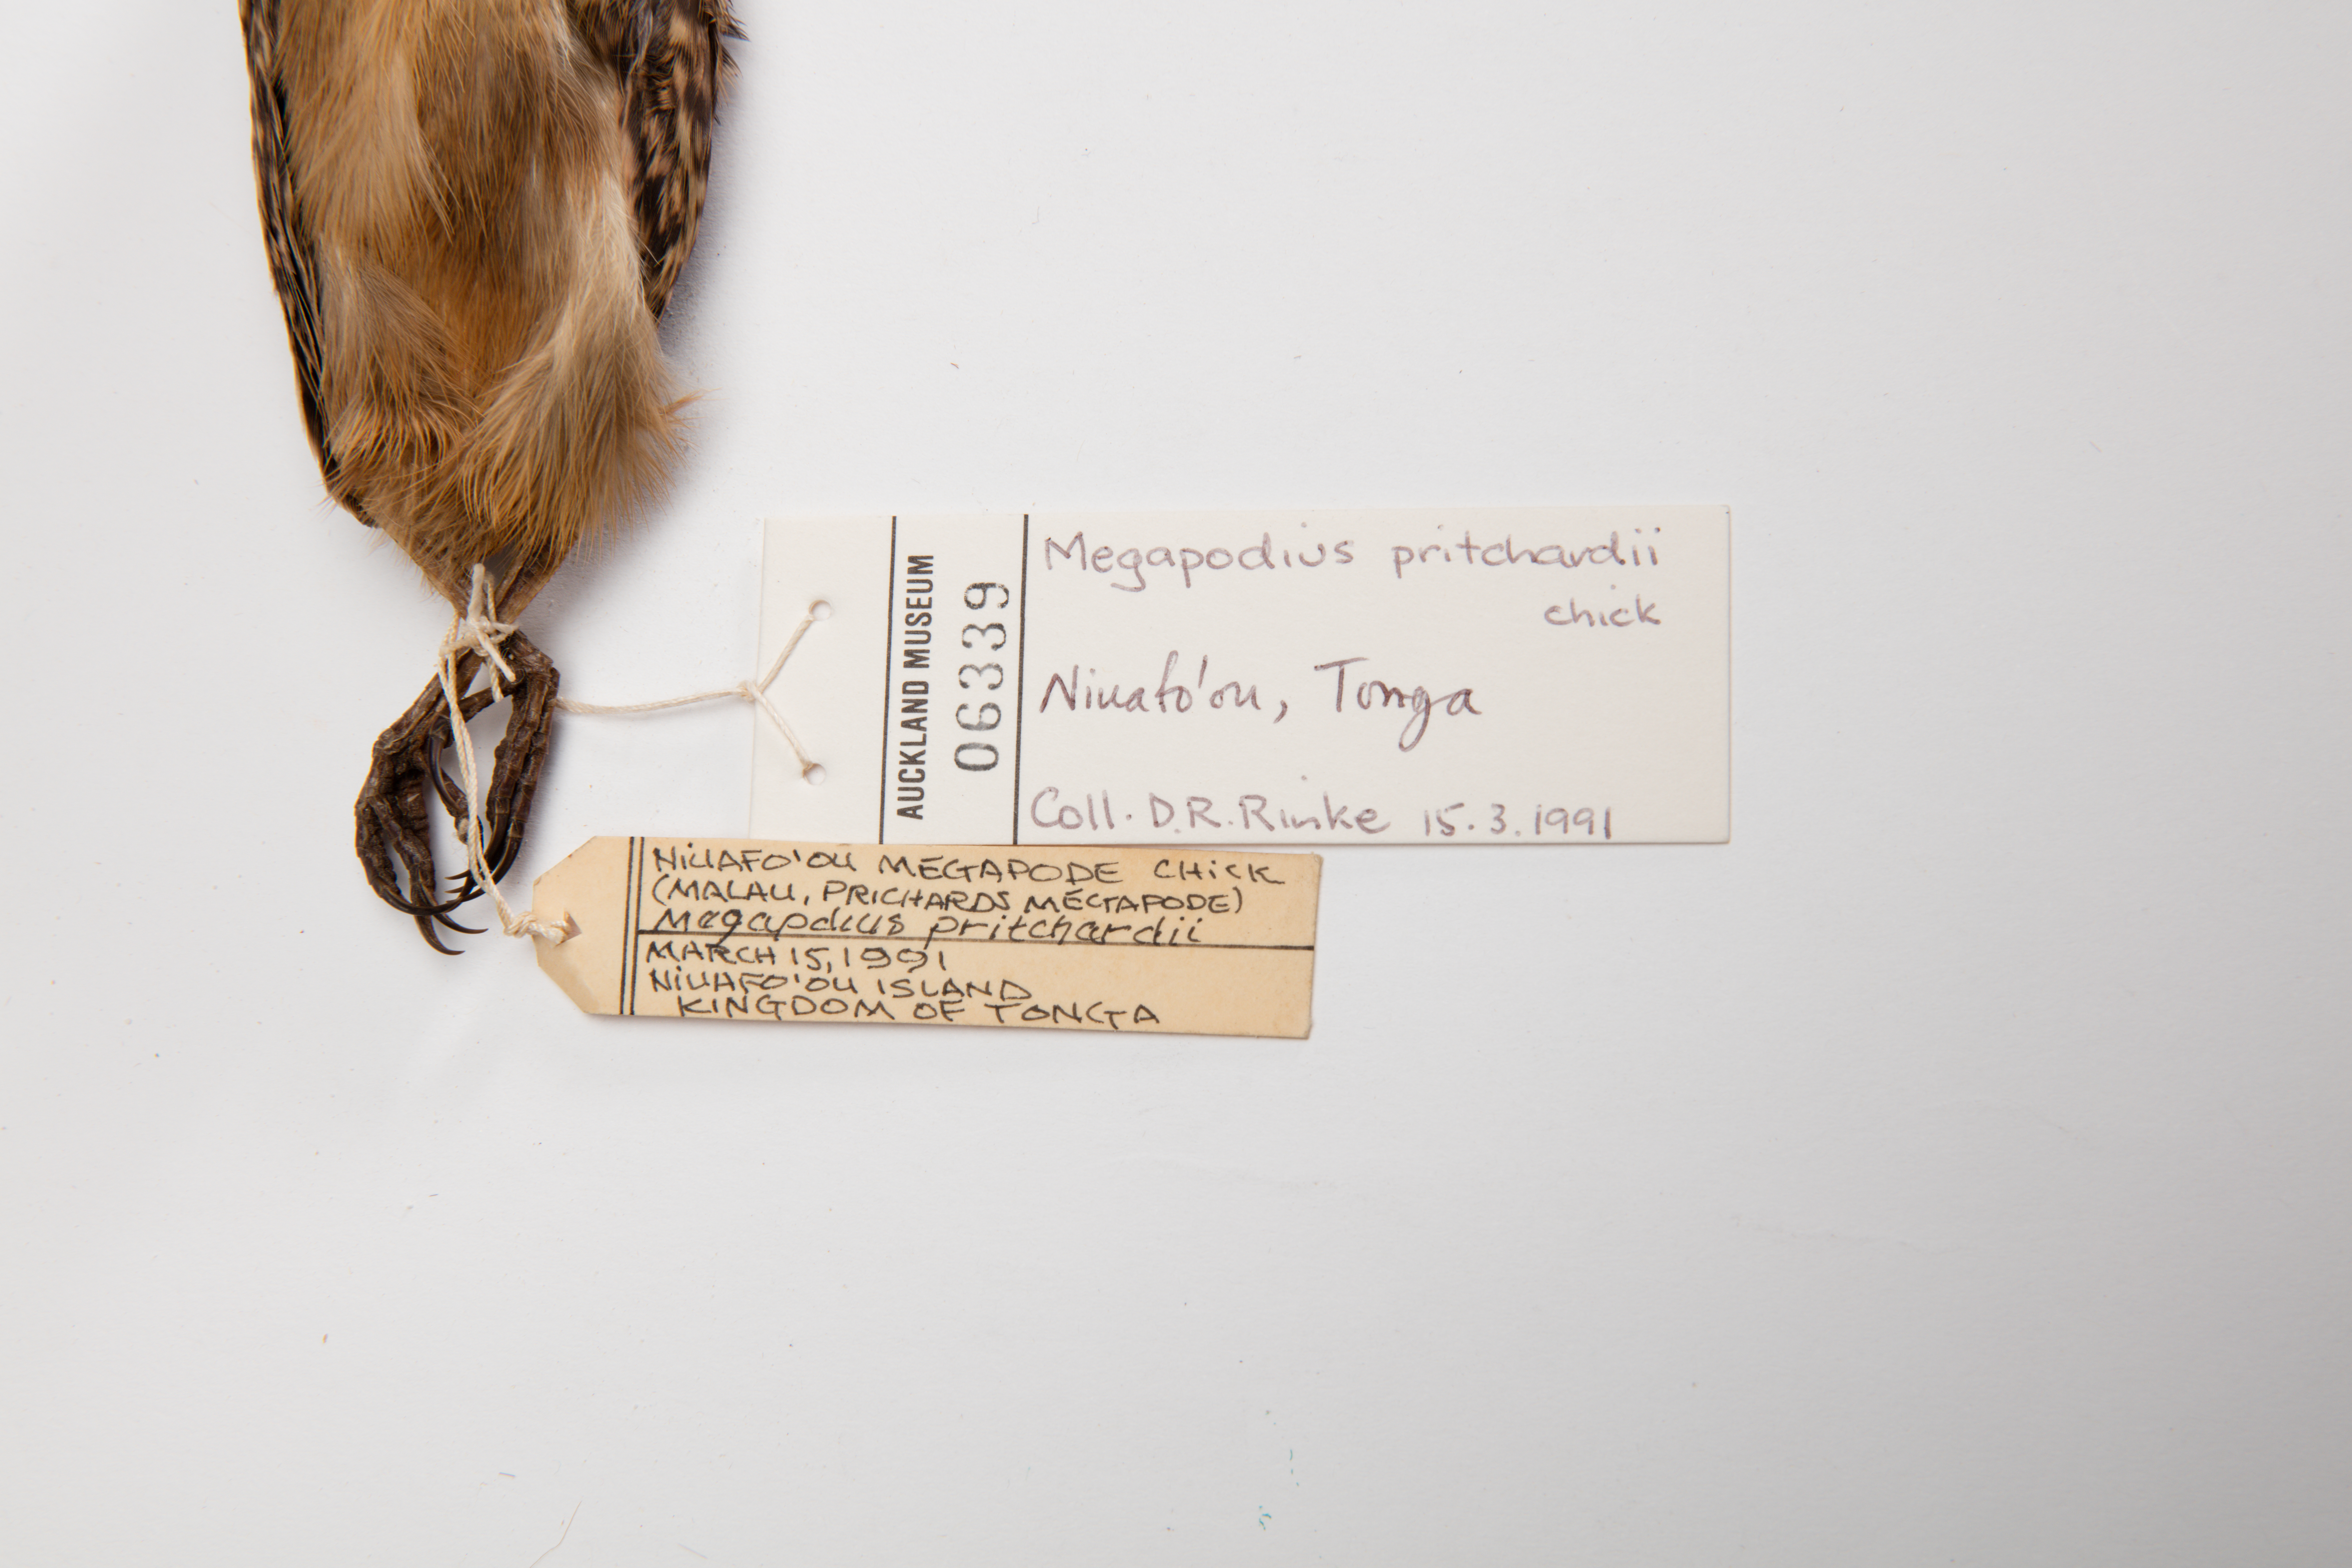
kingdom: Animalia
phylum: Chordata
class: Aves
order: Galliformes
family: Megapodiidae
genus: Megapodius
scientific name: Megapodius pritchardii
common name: Tongan megapode
